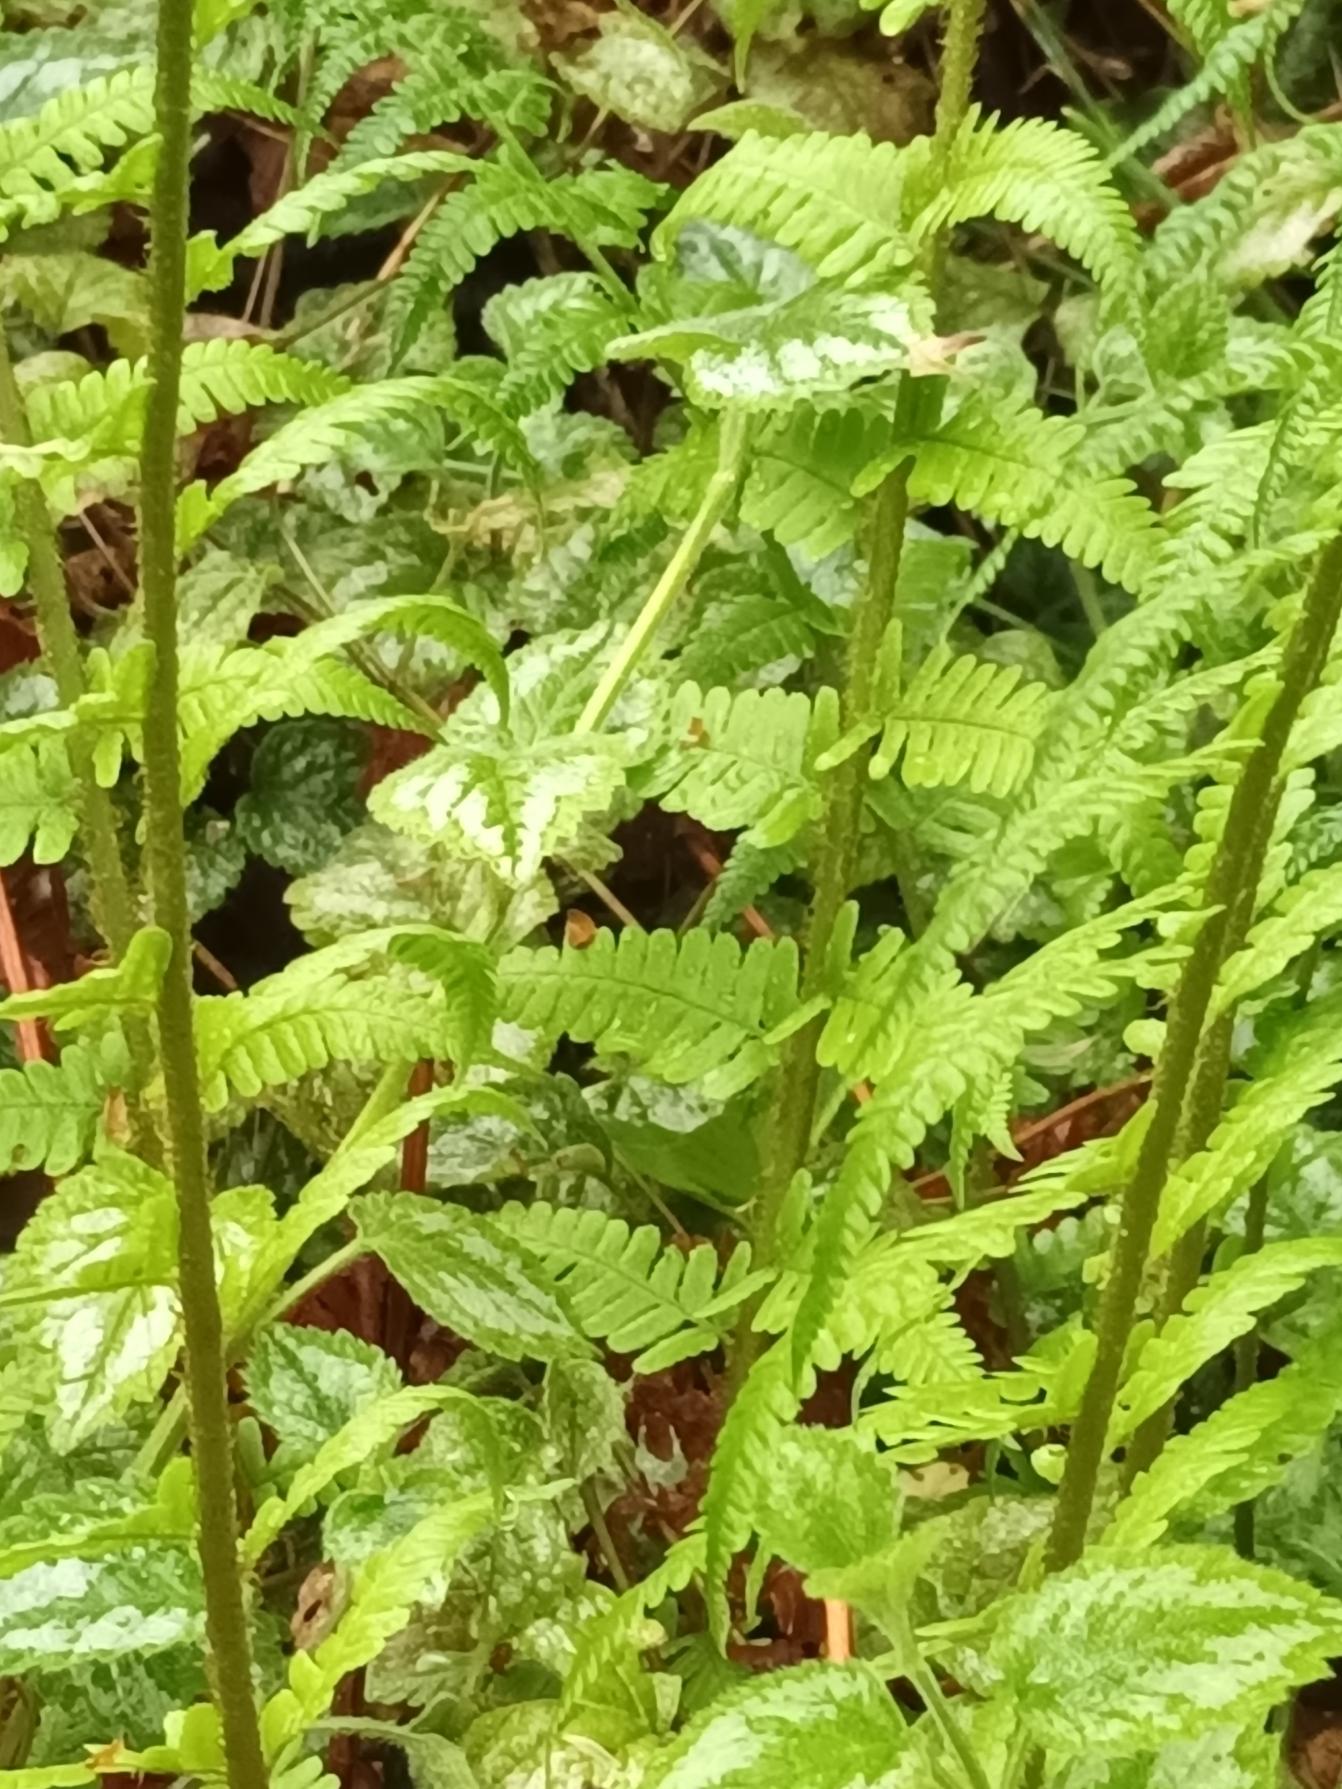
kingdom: Plantae
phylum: Tracheophyta
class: Polypodiopsida
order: Polypodiales
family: Dryopteridaceae
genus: Dryopteris
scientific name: Dryopteris filix-mas
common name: Almindelig mangeløv
